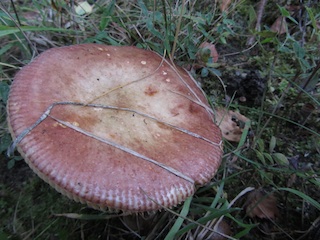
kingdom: Fungi
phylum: Basidiomycota
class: Agaricomycetes
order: Russulales
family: Russulaceae
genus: Russula
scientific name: Russula versicolor
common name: foranderlig skørhat
